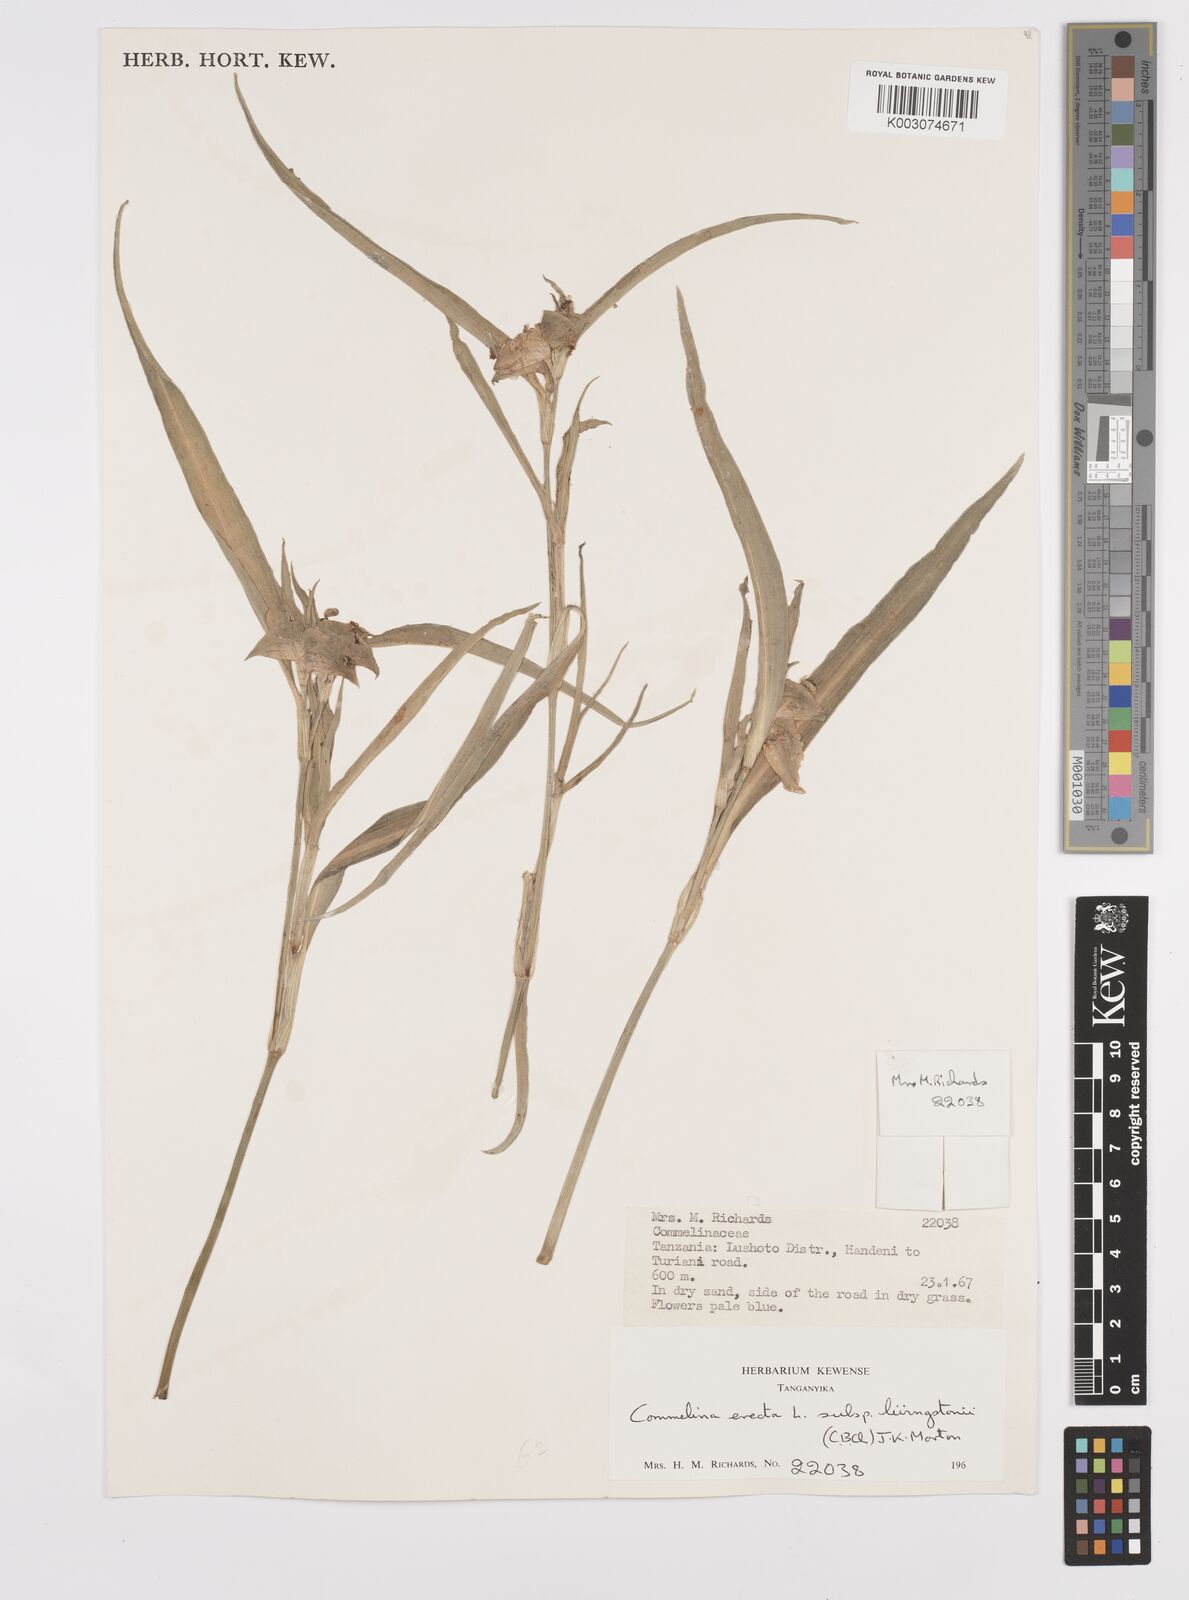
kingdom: Plantae
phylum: Tracheophyta
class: Liliopsida
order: Commelinales
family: Commelinaceae
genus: Commelina
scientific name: Commelina erecta
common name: Blousel blommetjie
